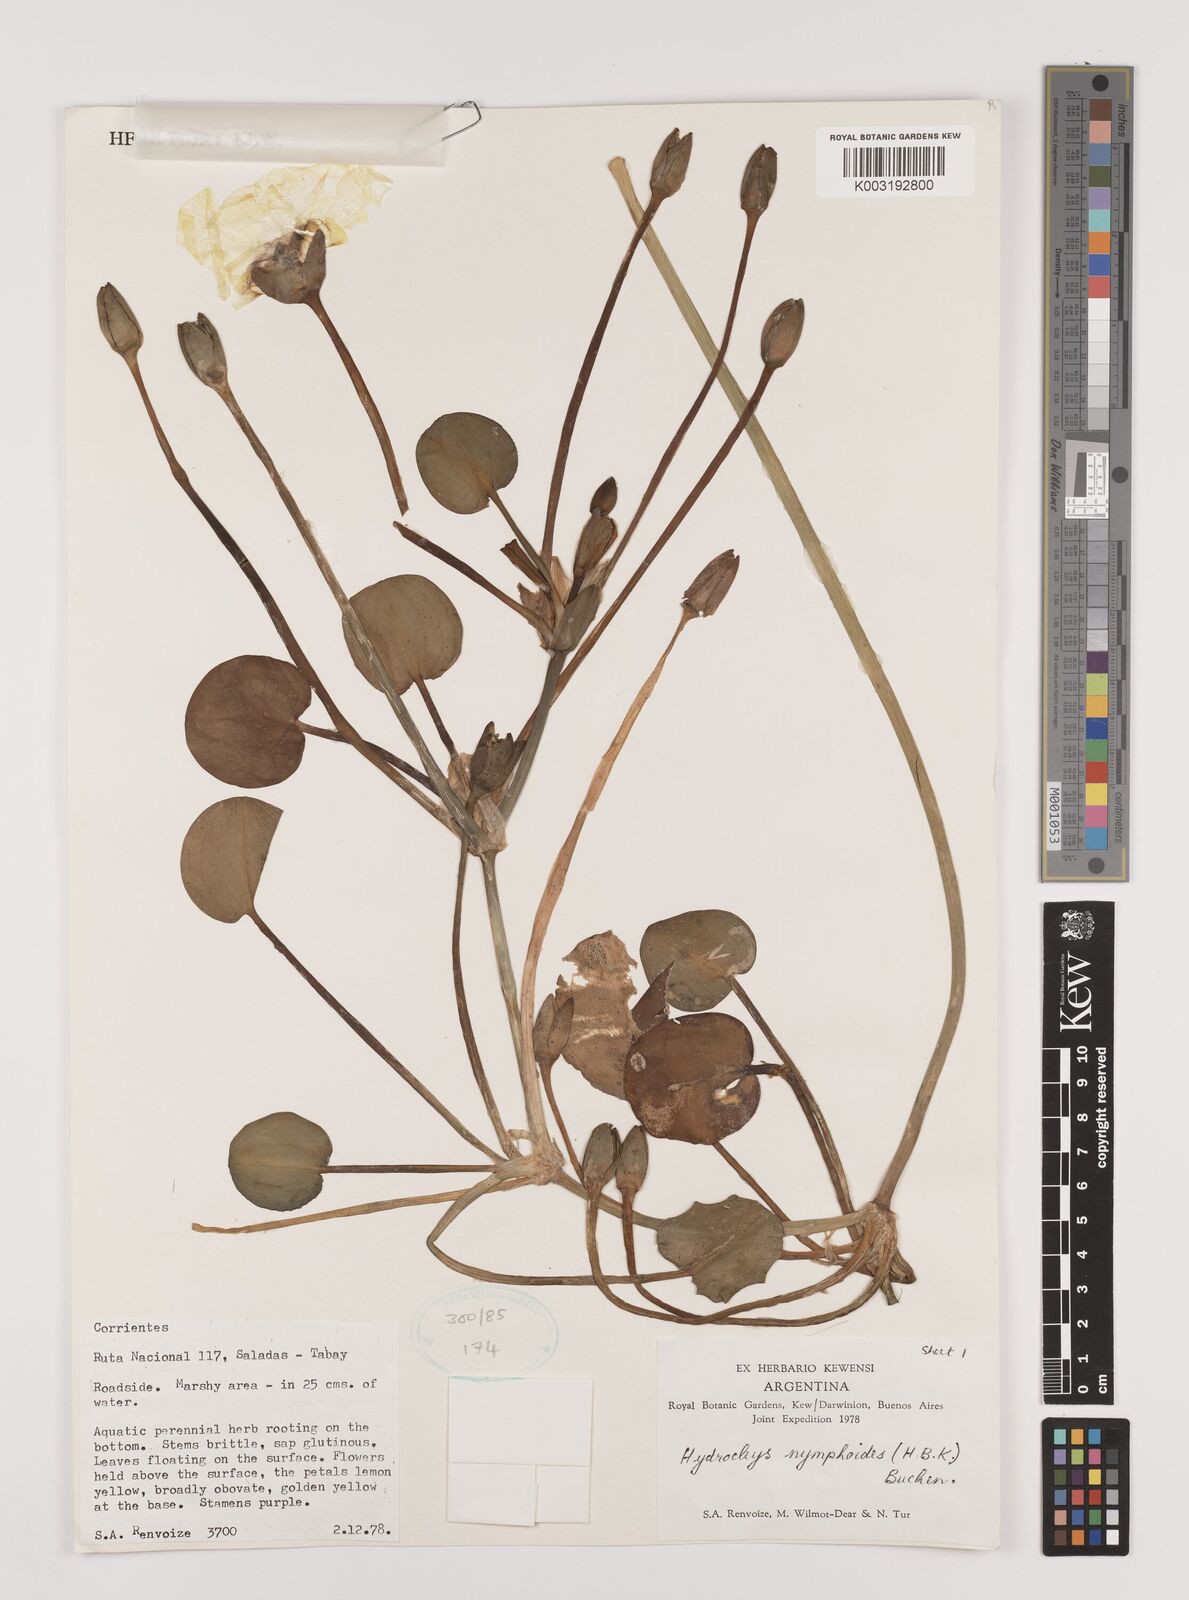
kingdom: Plantae
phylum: Tracheophyta
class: Liliopsida
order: Alismatales
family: Alismataceae
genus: Hydrocleys
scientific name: Hydrocleys nymphoides
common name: Water-poppy
